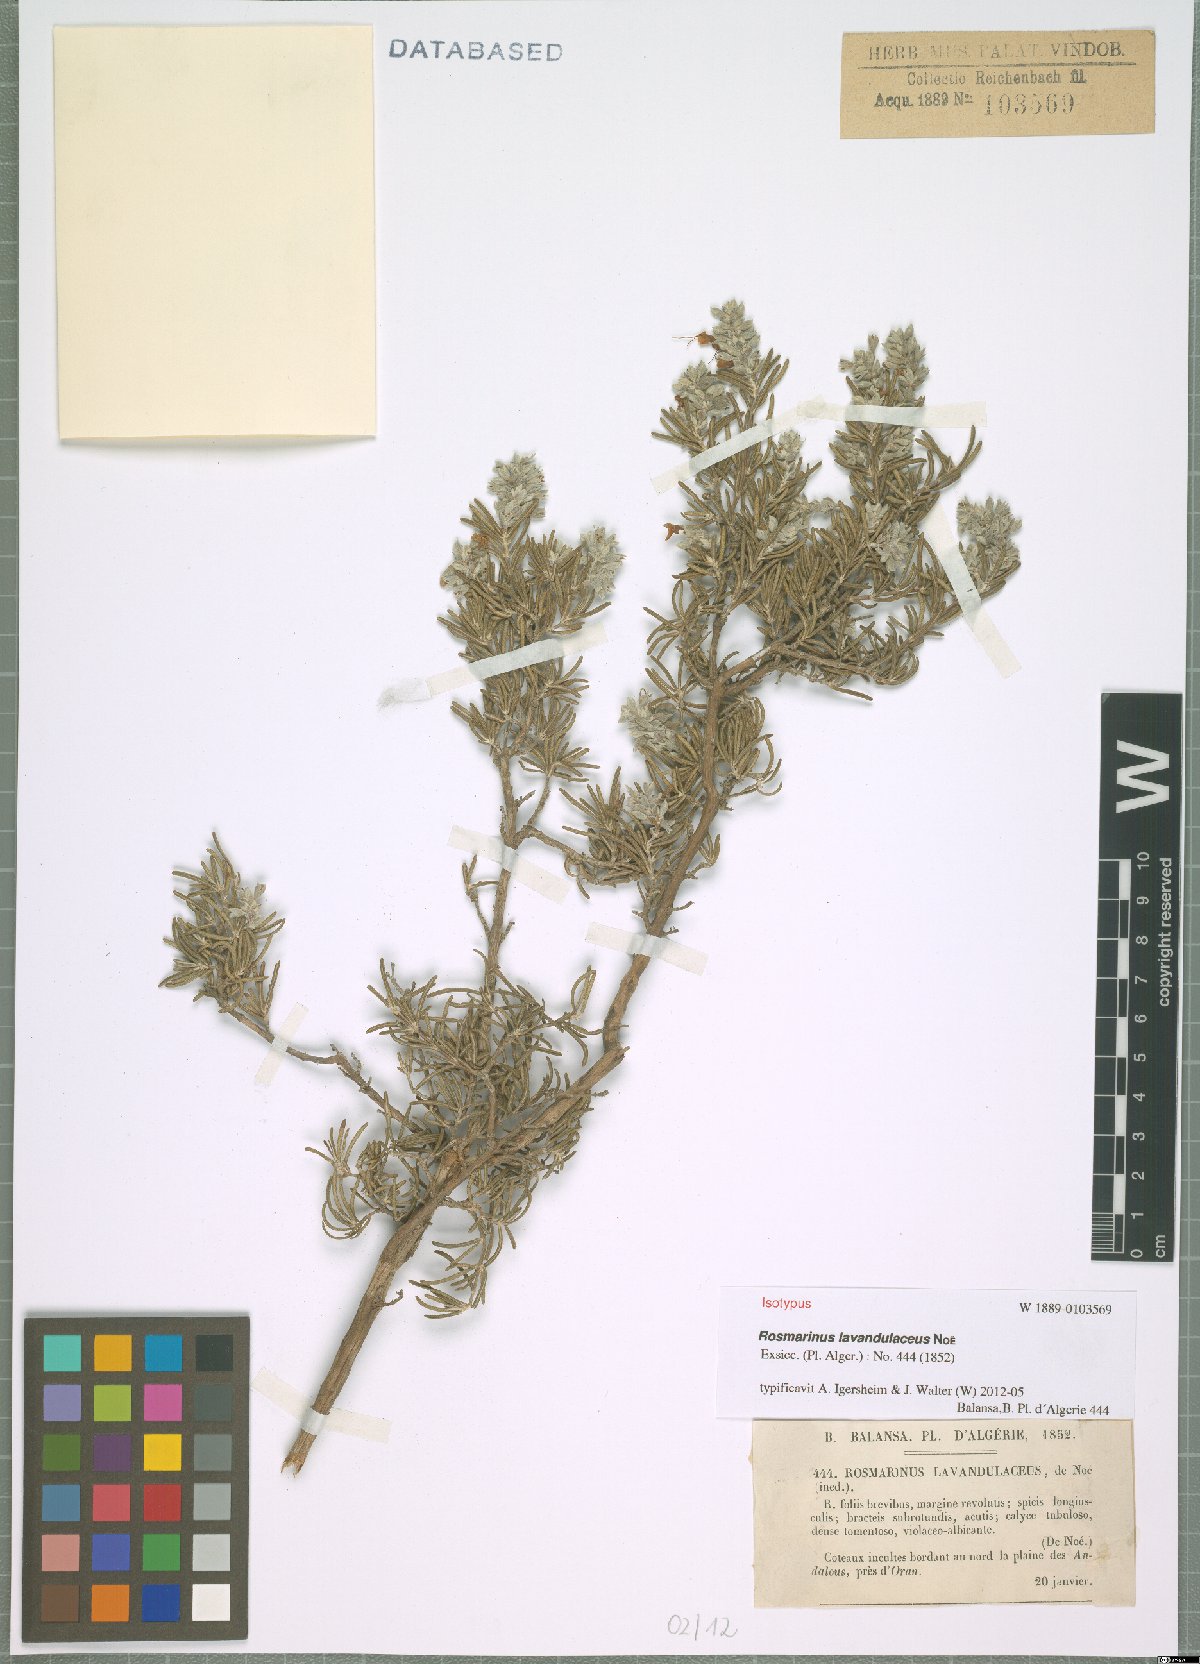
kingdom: Plantae
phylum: Tracheophyta
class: Magnoliopsida
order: Lamiales
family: Lamiaceae
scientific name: Lamiaceae
